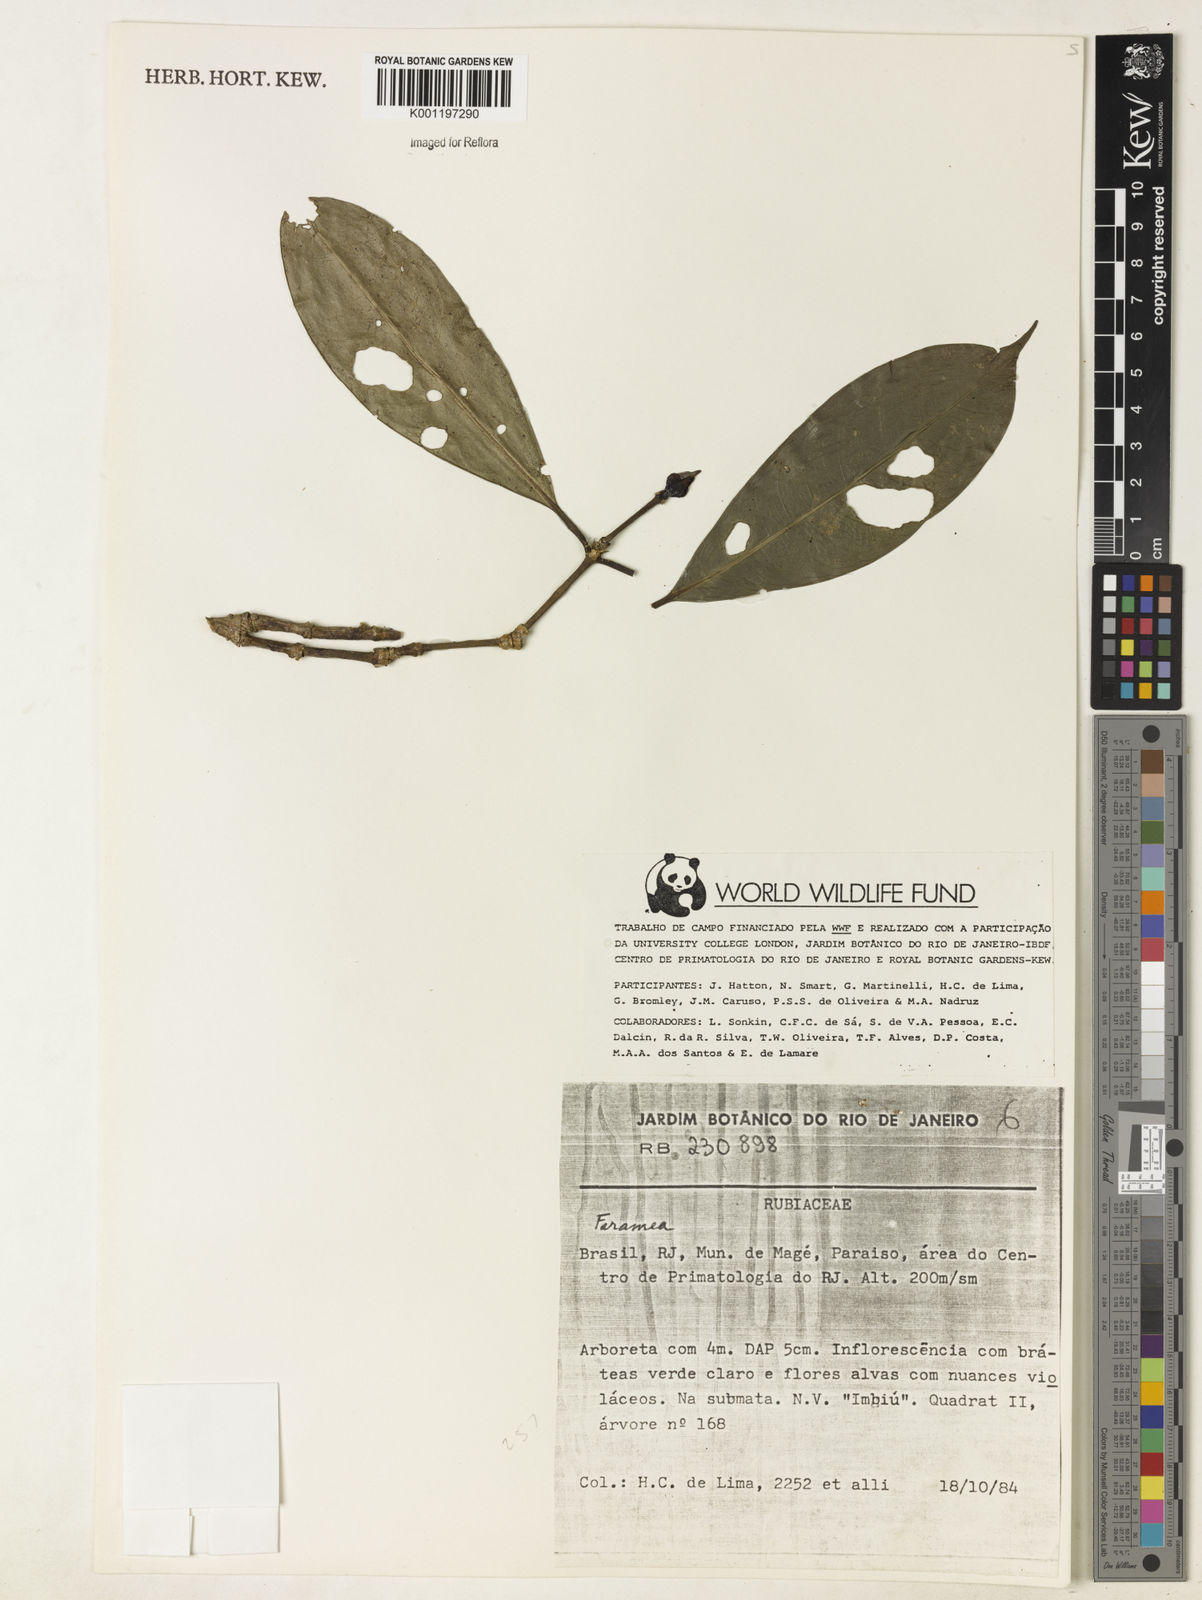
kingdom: Plantae
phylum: Tracheophyta
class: Magnoliopsida
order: Gentianales
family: Rubiaceae
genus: Faramea
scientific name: Faramea
